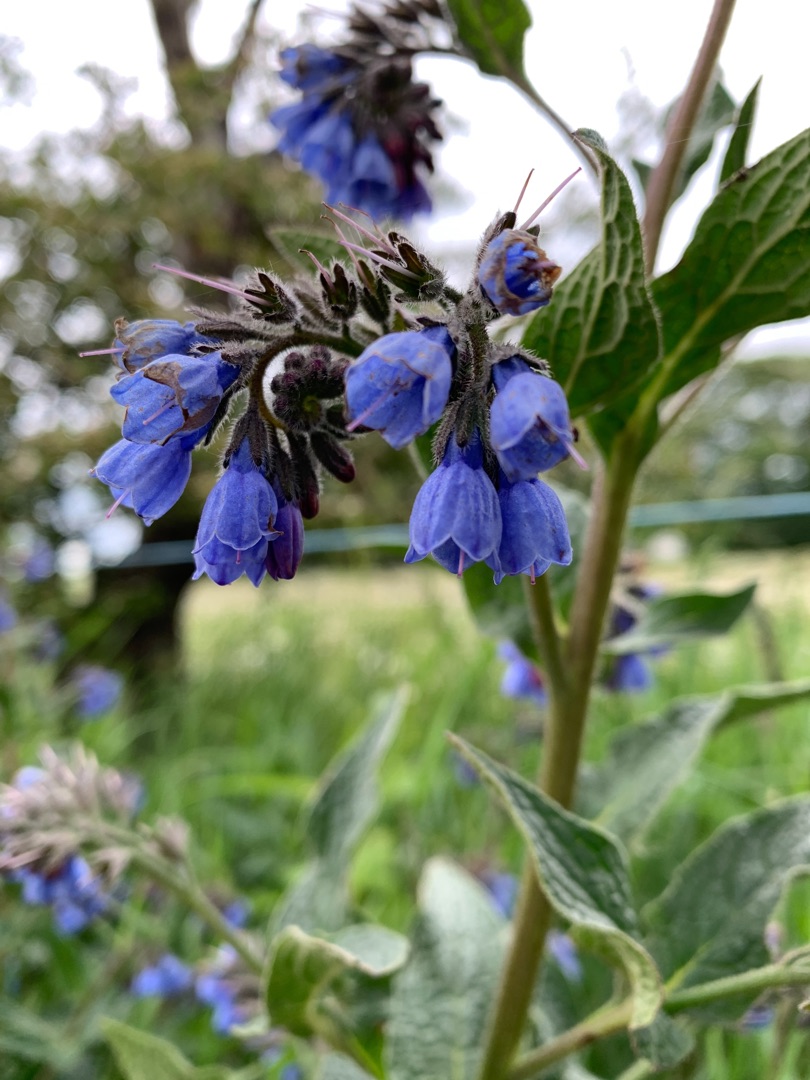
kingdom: Plantae
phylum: Tracheophyta
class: Magnoliopsida
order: Boraginales
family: Boraginaceae
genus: Symphytum
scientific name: Symphytum caucasicum
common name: Kaukasisk kulsukker
